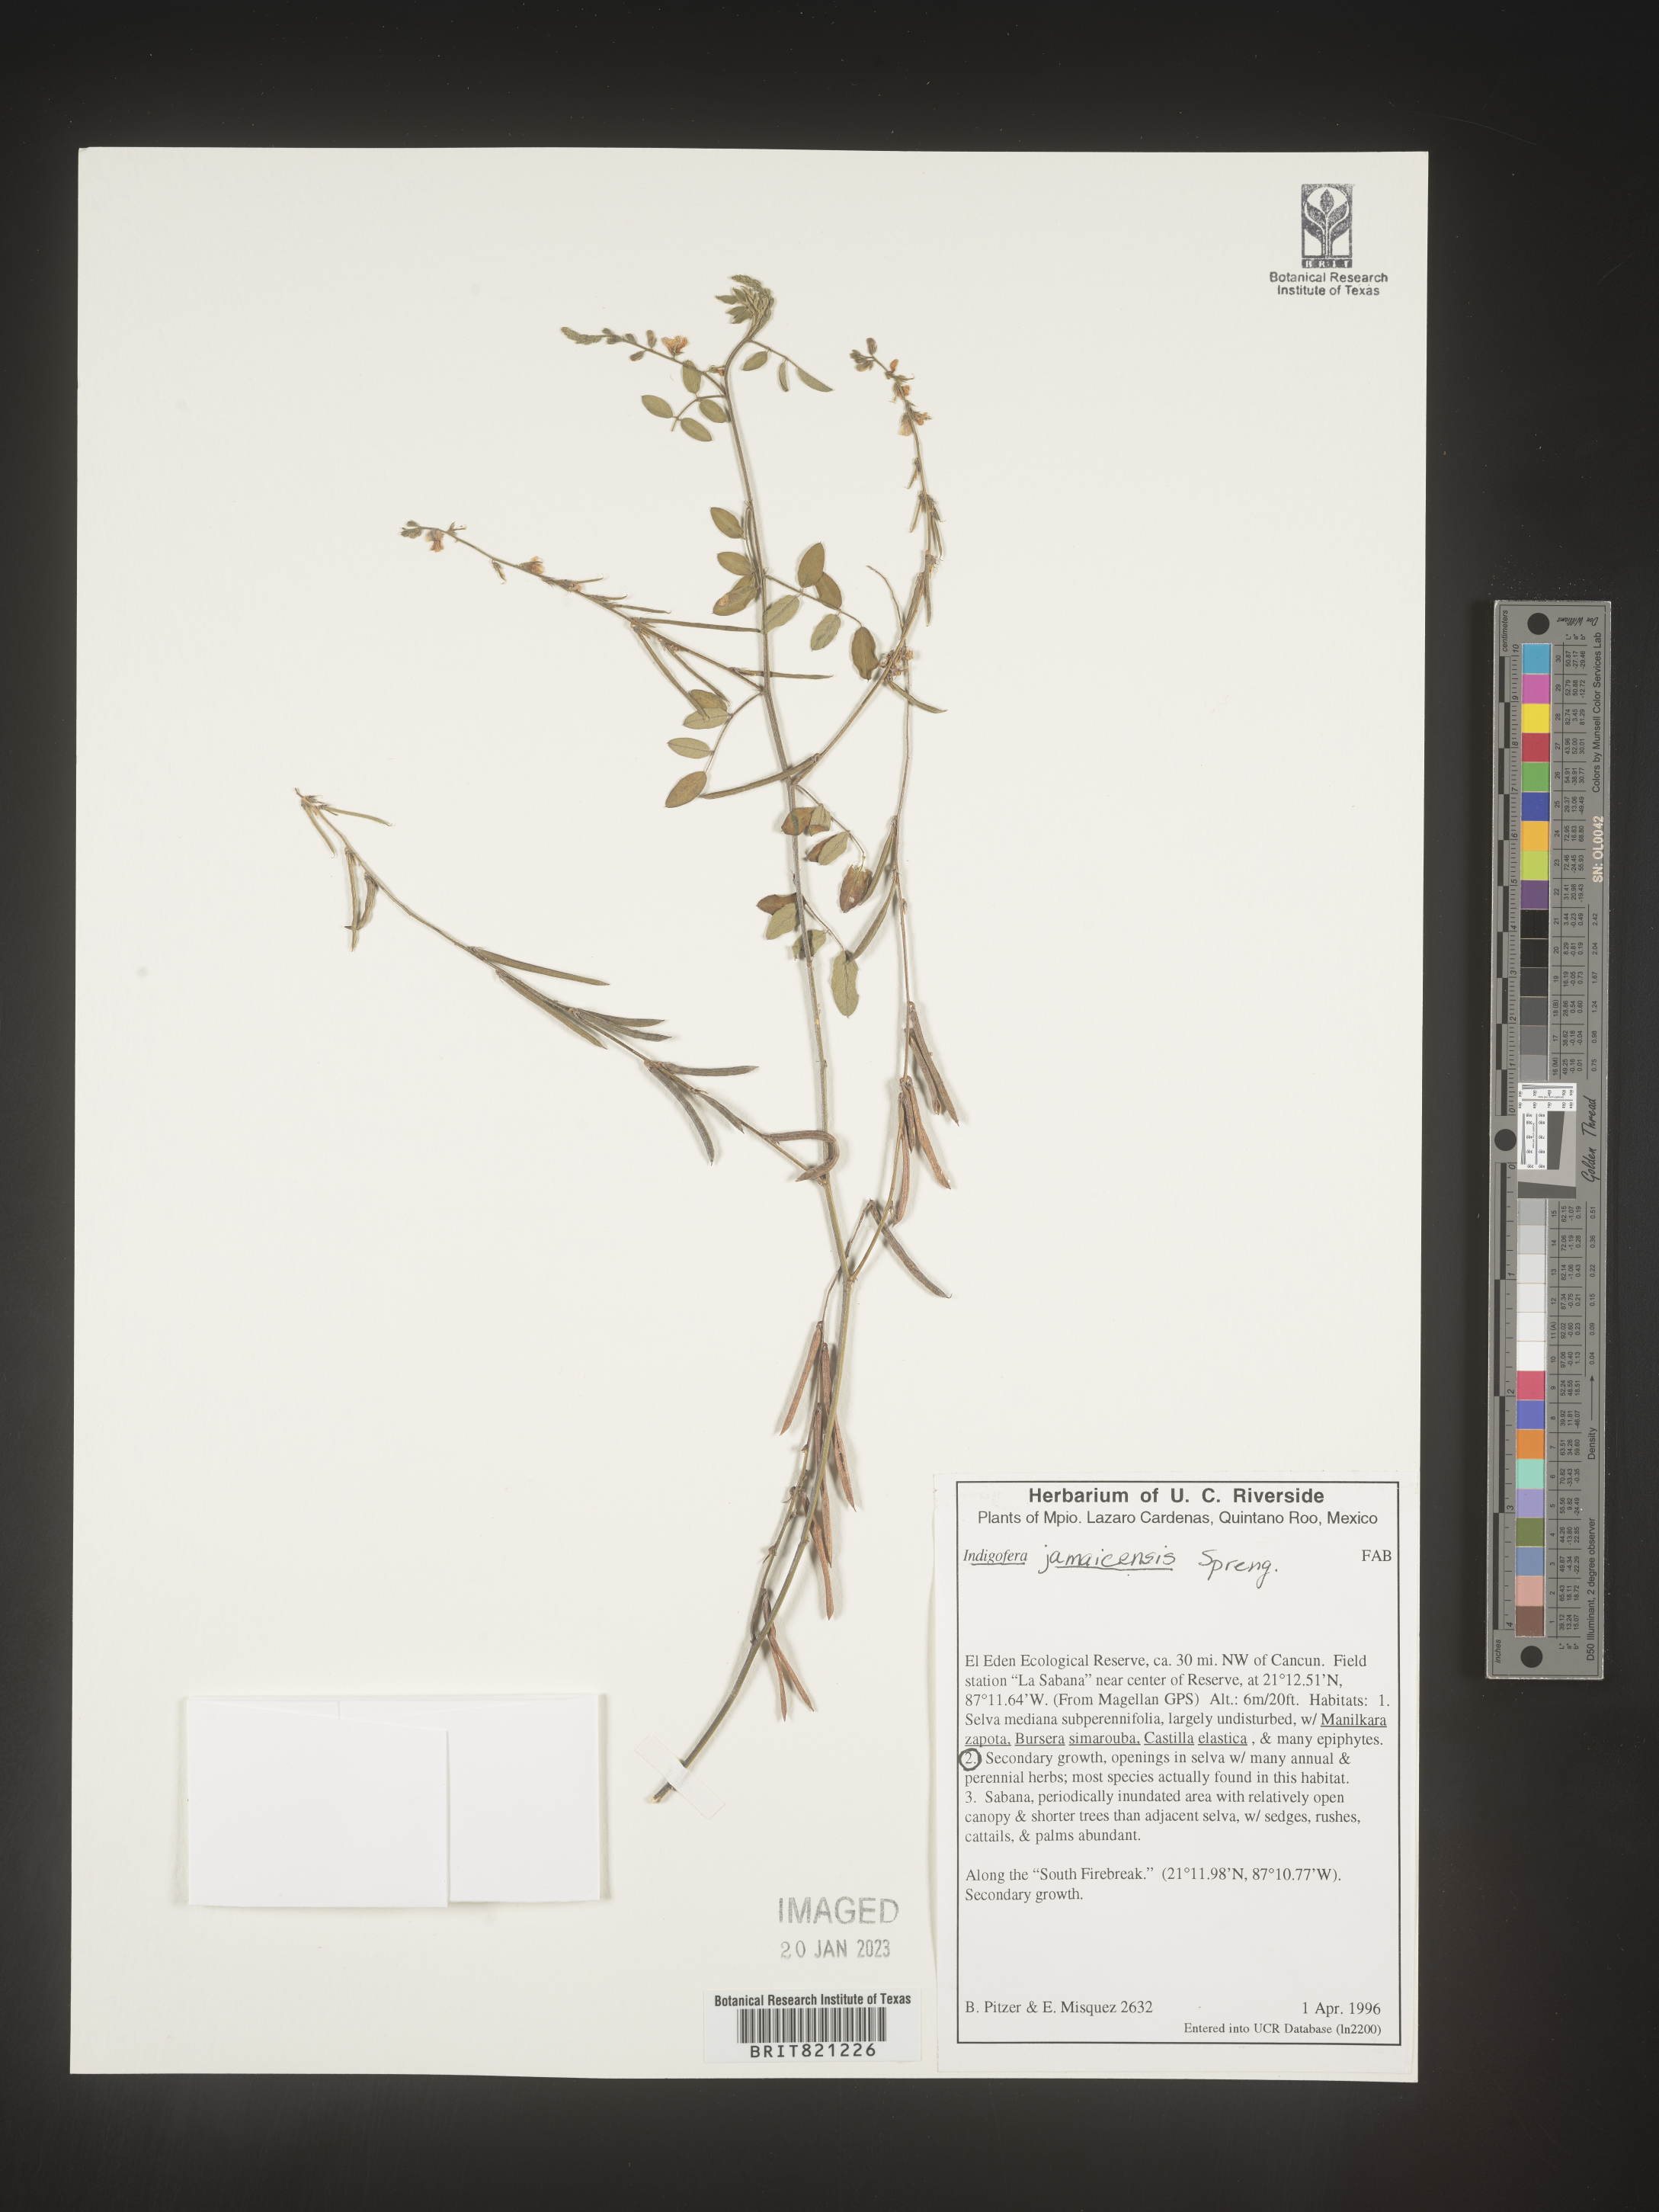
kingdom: Plantae
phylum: Tracheophyta
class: Magnoliopsida
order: Fabales
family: Fabaceae
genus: Indigofera
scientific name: Indigofera
